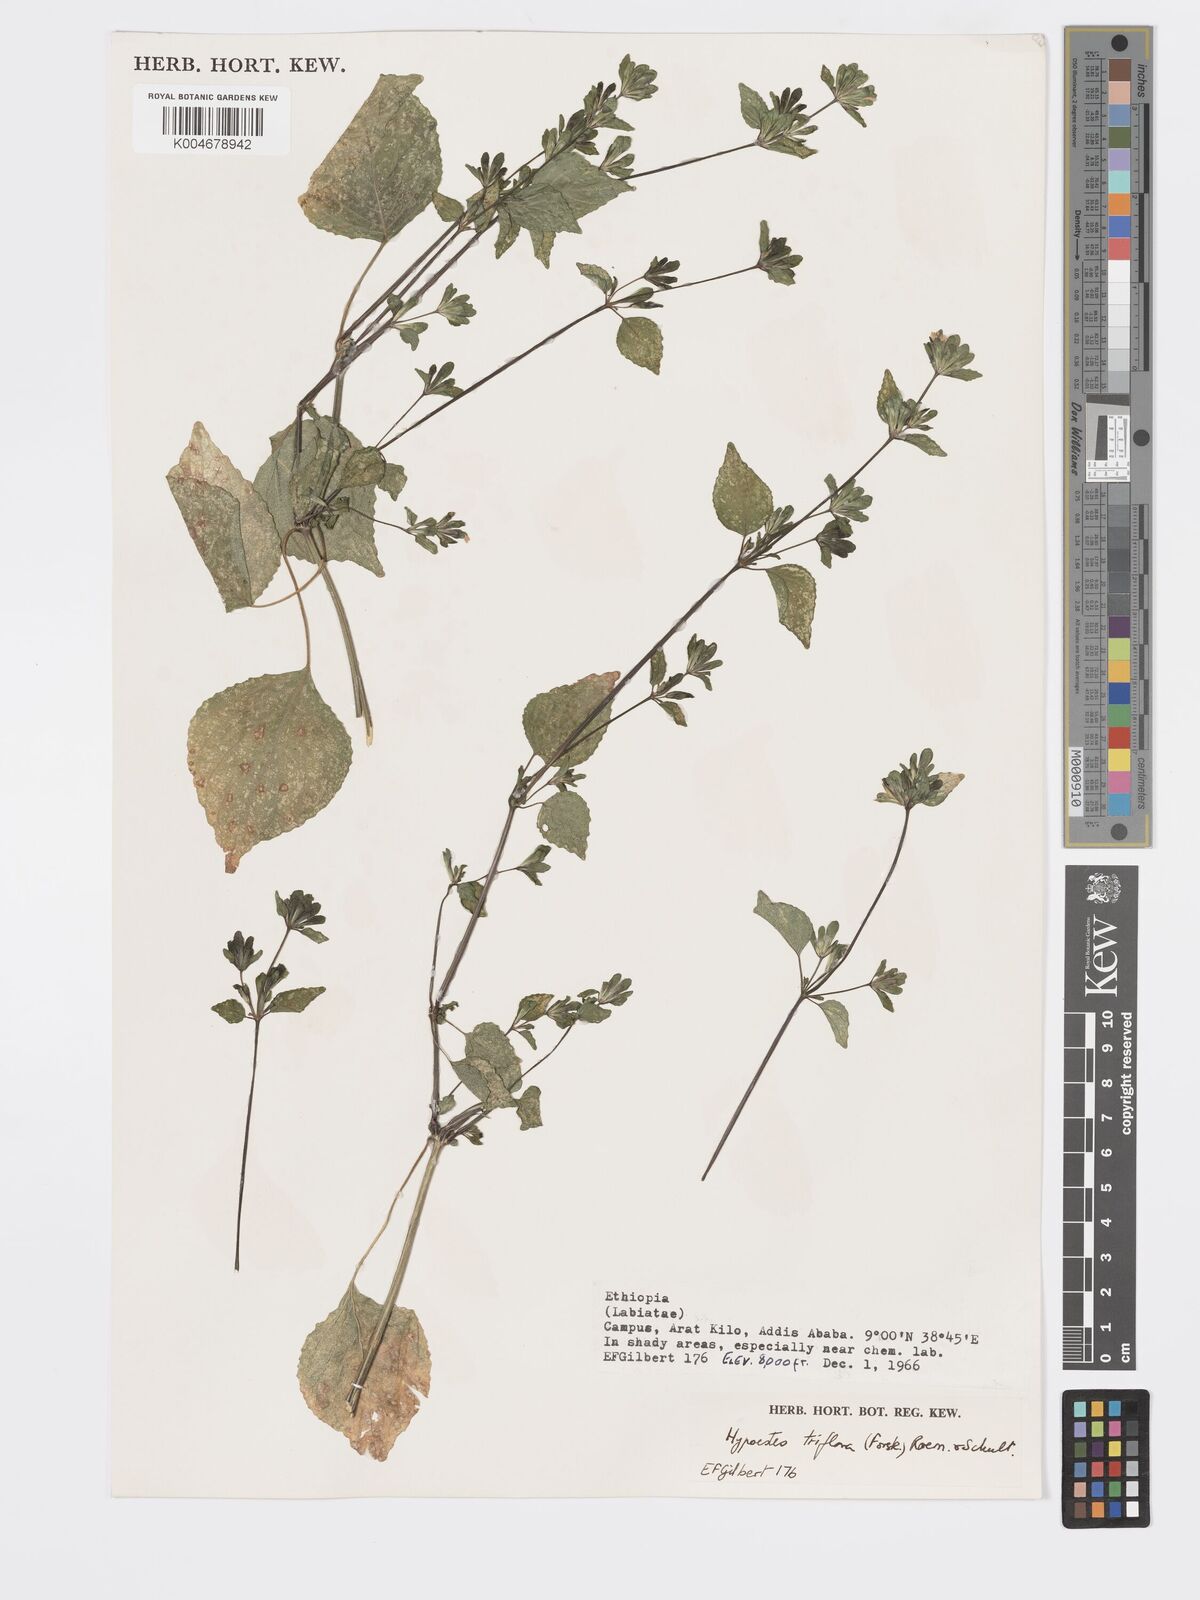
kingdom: Plantae
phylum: Tracheophyta
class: Magnoliopsida
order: Lamiales
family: Acanthaceae
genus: Hypoestes
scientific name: Hypoestes triflora
